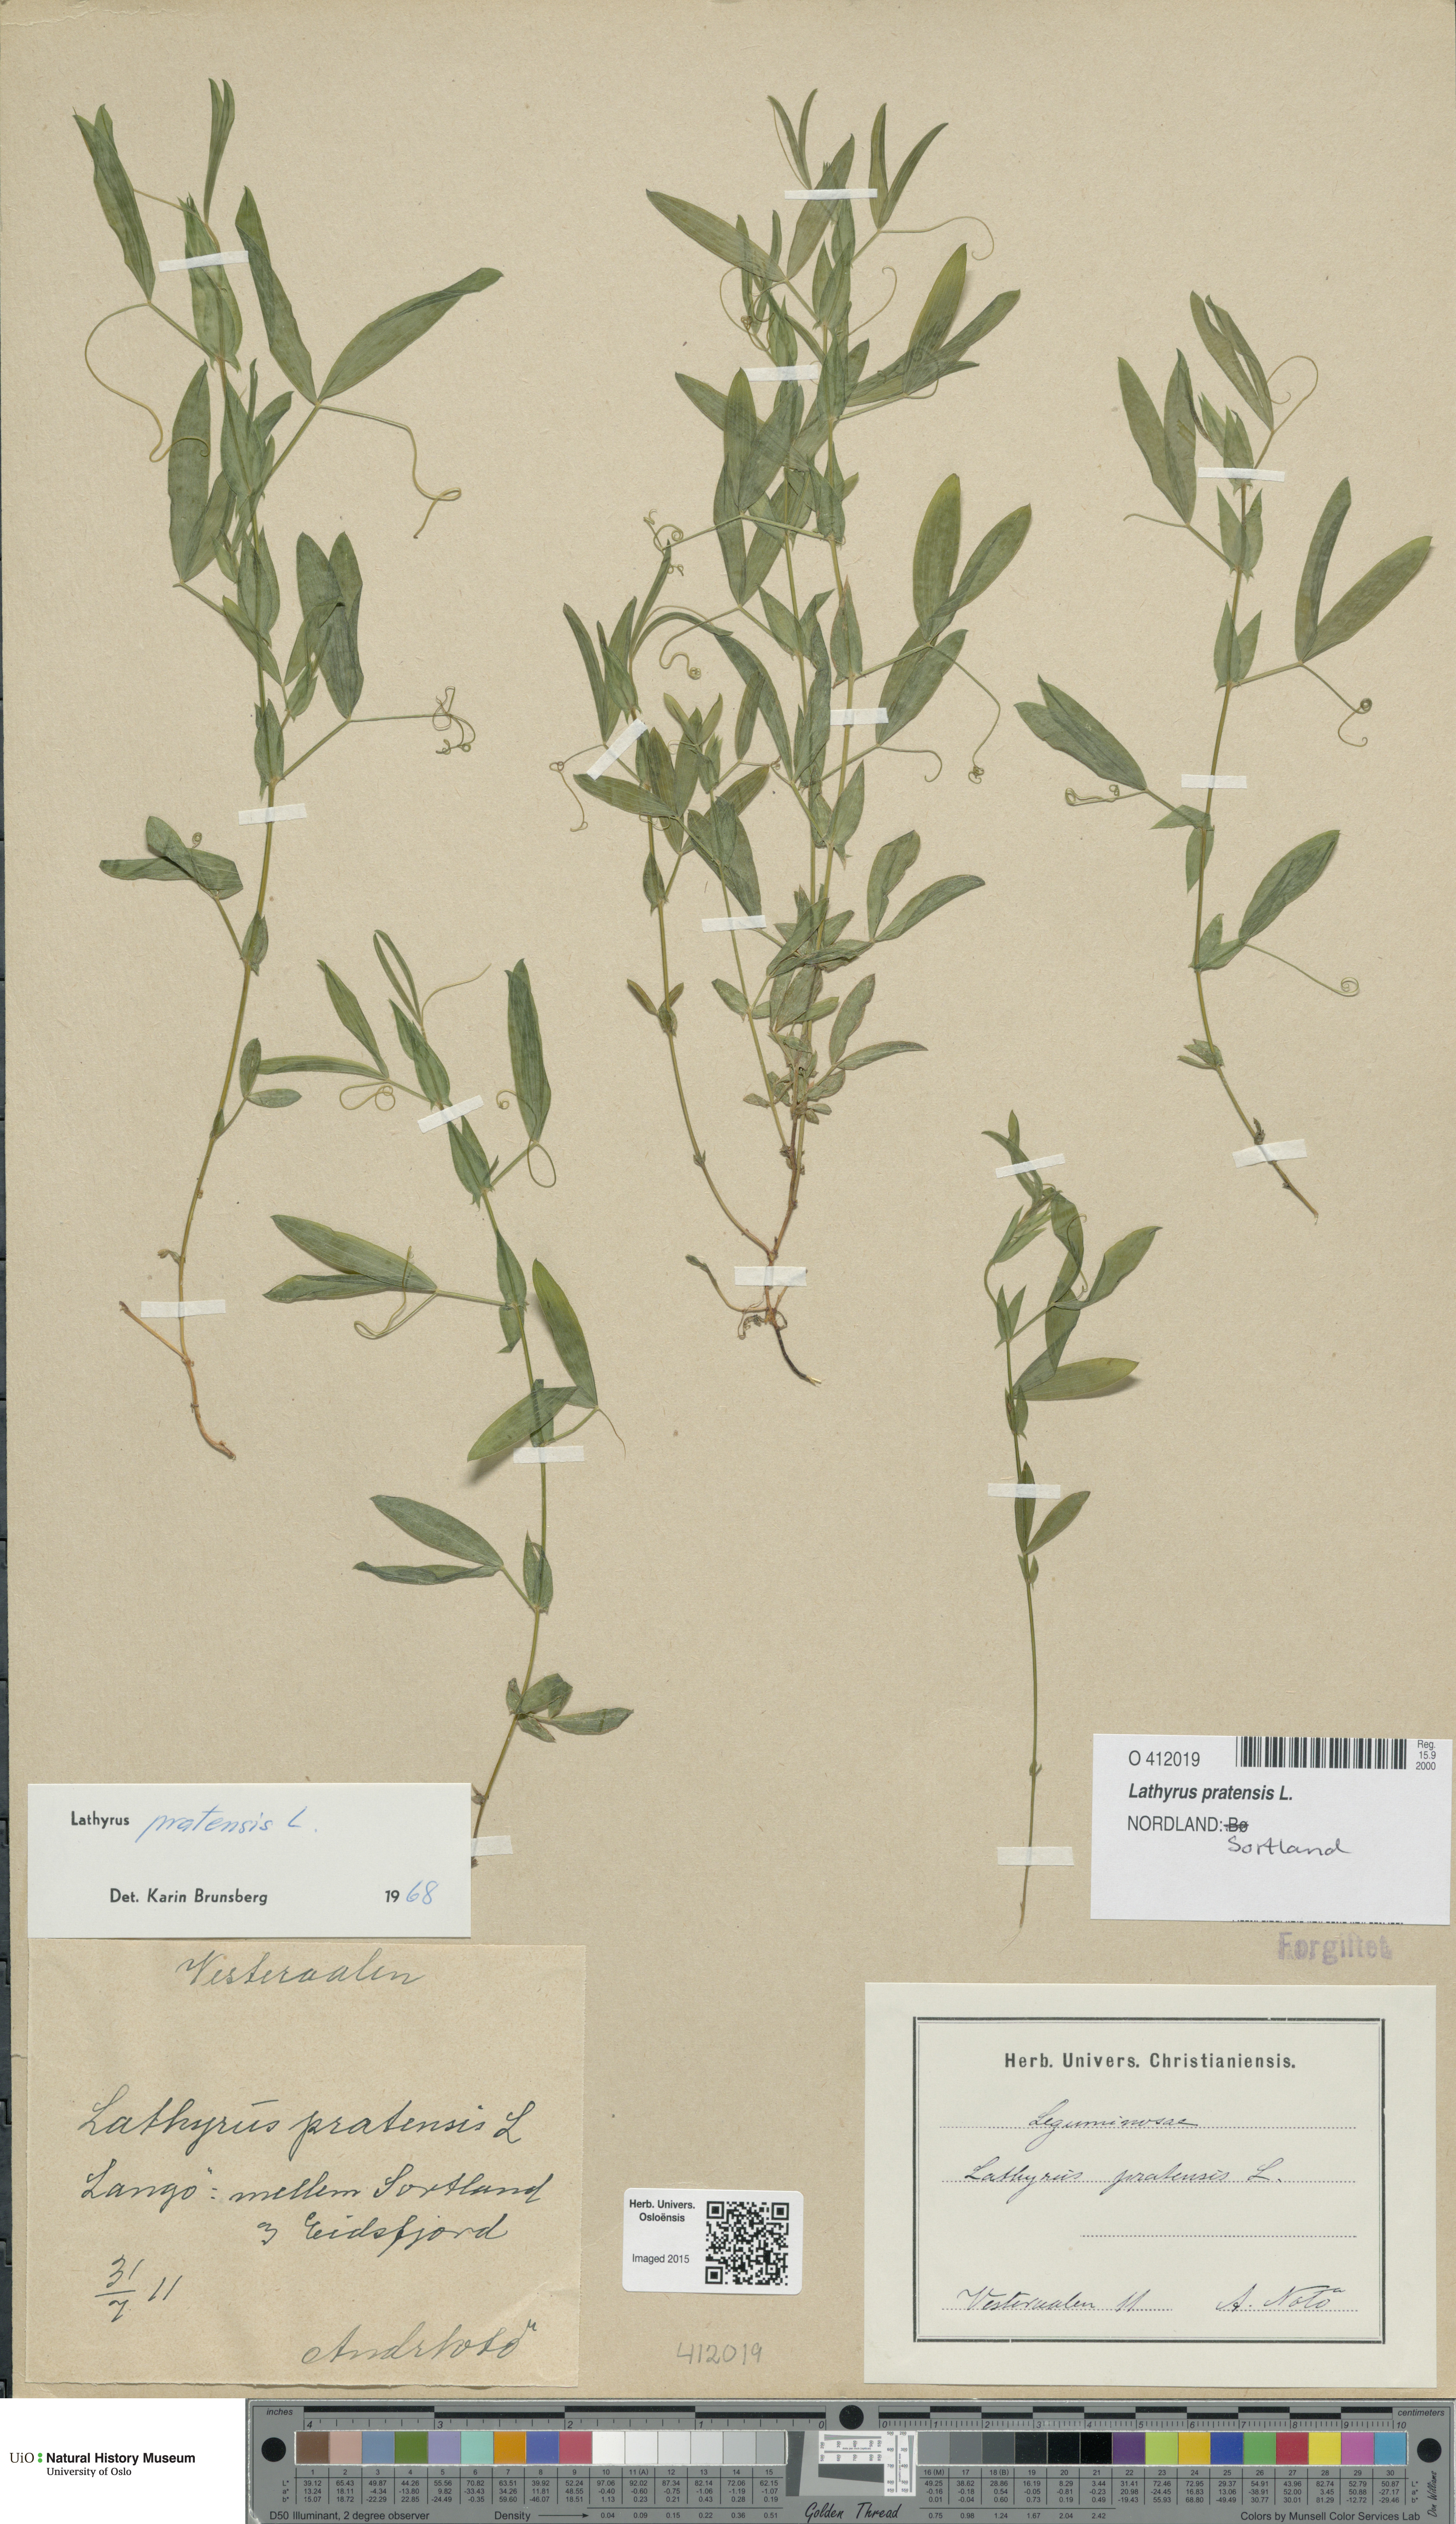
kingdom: Plantae
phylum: Tracheophyta
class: Magnoliopsida
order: Fabales
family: Fabaceae
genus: Lathyrus
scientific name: Lathyrus pratensis
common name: Meadow vetchling
